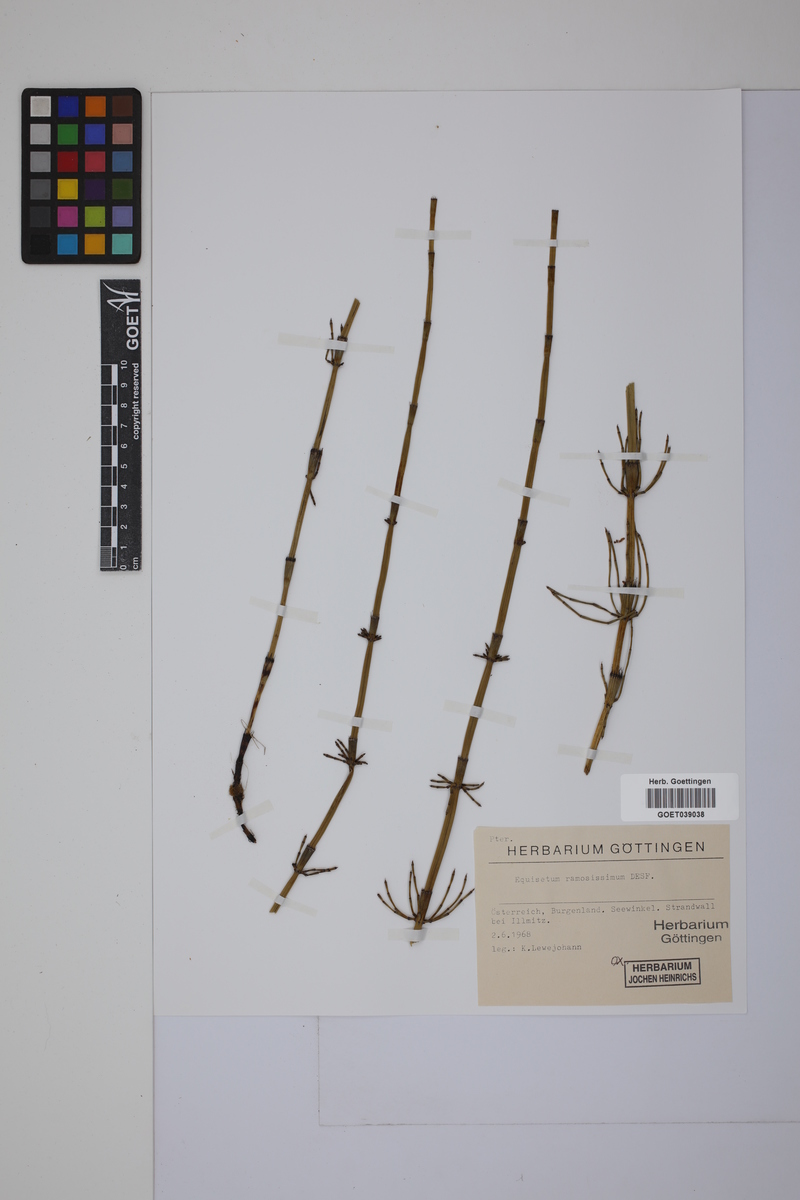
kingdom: Plantae
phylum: Tracheophyta
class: Polypodiopsida
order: Equisetales
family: Equisetaceae
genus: Equisetum
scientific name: Equisetum giganteum
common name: Giant horsetail
